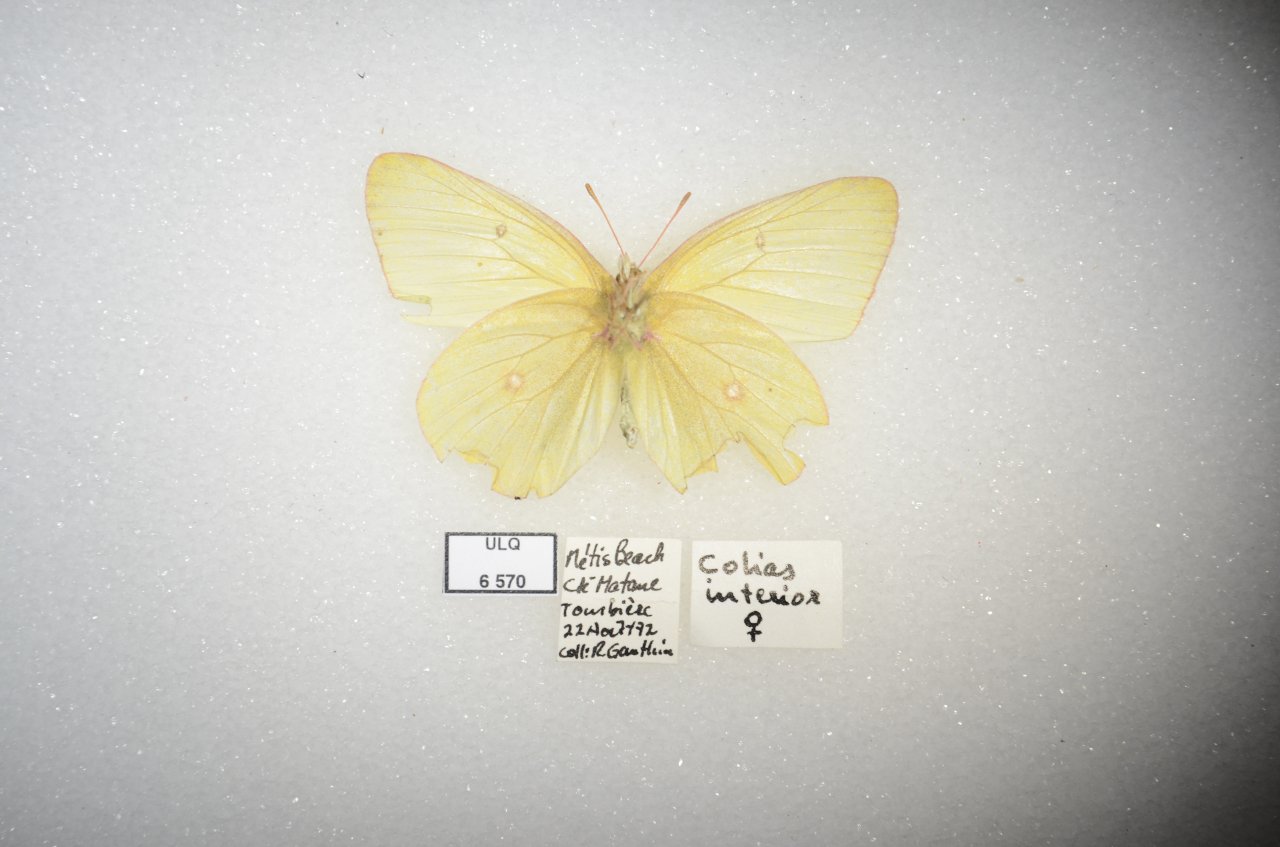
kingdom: Animalia
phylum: Arthropoda
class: Insecta
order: Lepidoptera
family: Pieridae
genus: Colias
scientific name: Colias interior
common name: Pink-edged Sulphur
